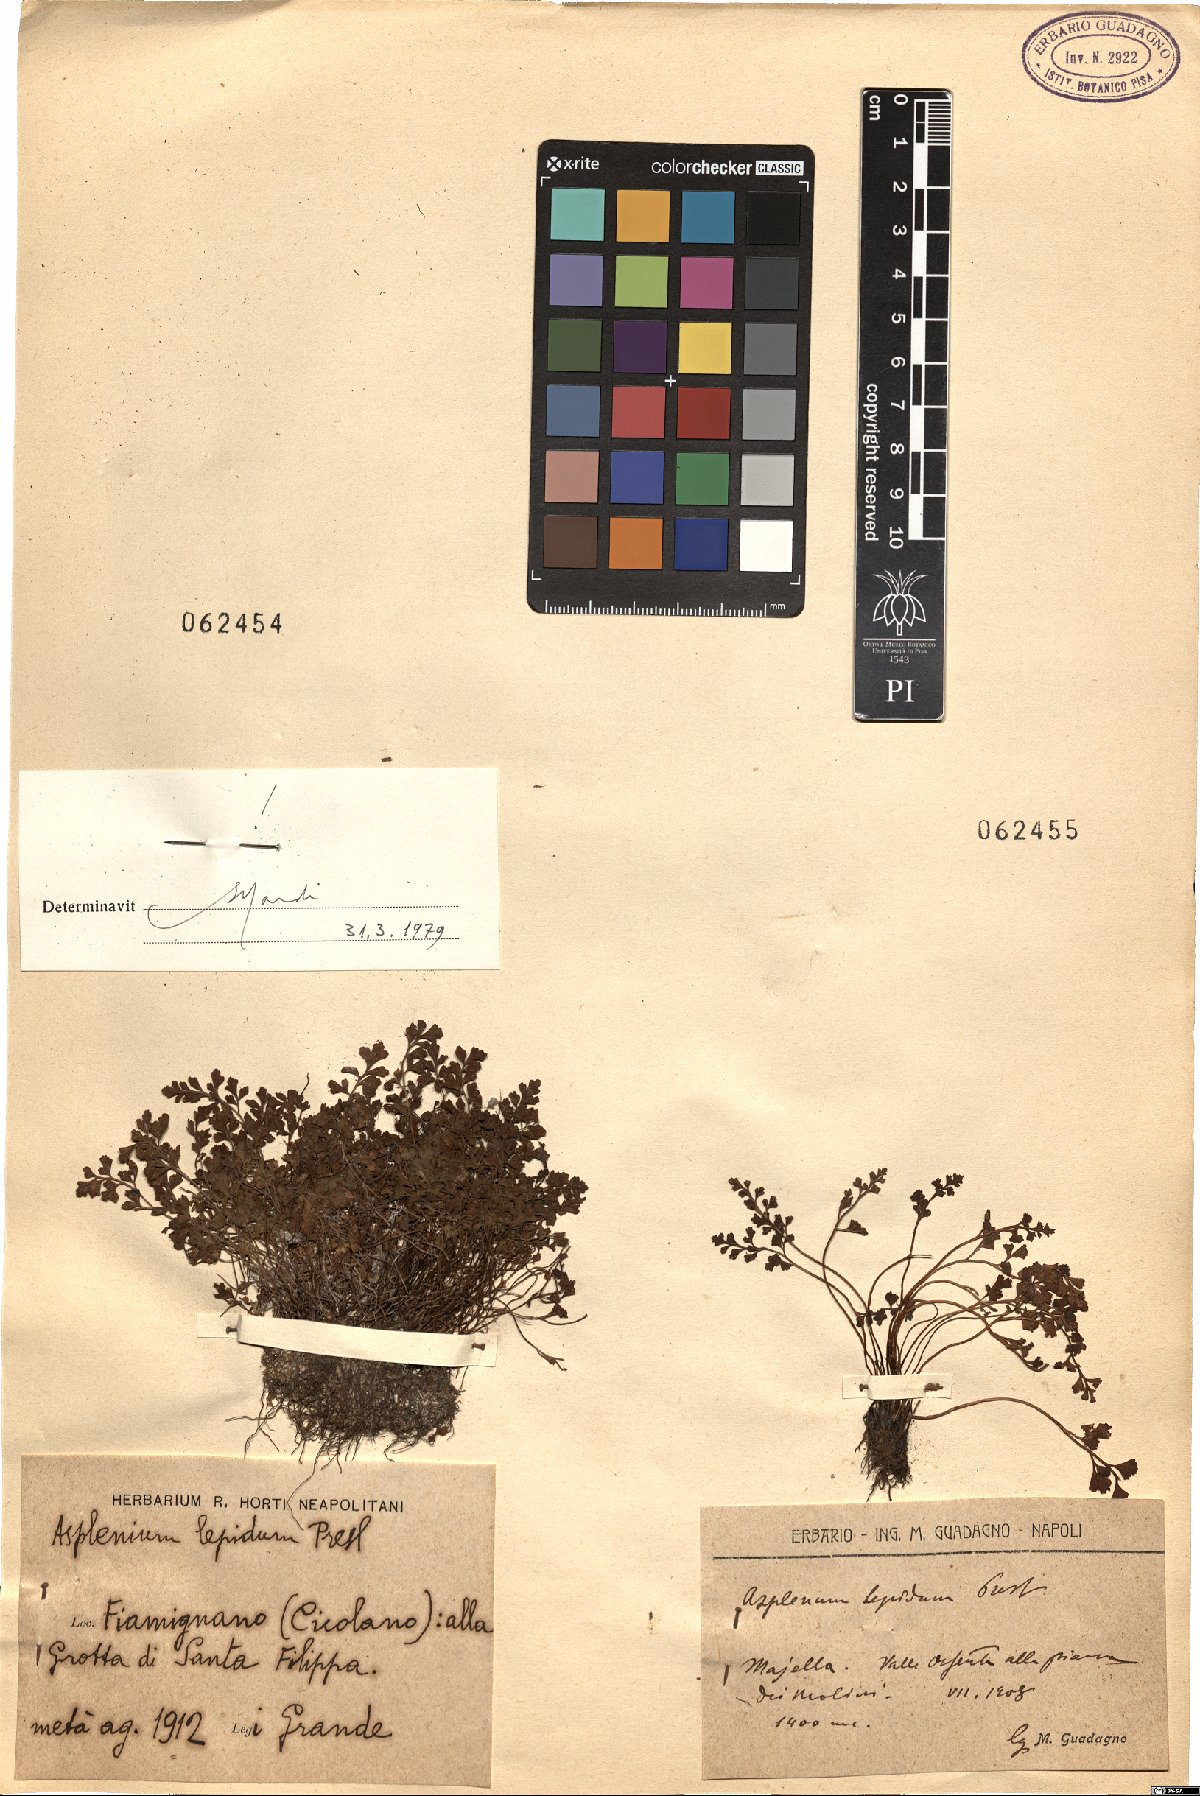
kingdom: Plantae
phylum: Tracheophyta
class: Polypodiopsida
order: Polypodiales
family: Aspleniaceae
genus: Asplenium
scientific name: Asplenium lepidum
